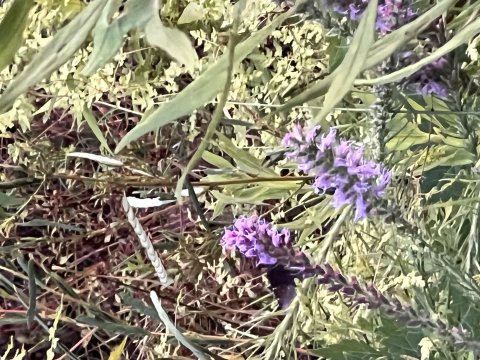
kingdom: Animalia
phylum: Arthropoda
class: Insecta
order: Lepidoptera
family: Hesperiidae
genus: Autochton
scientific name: Autochton
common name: Northern Cloudywing
